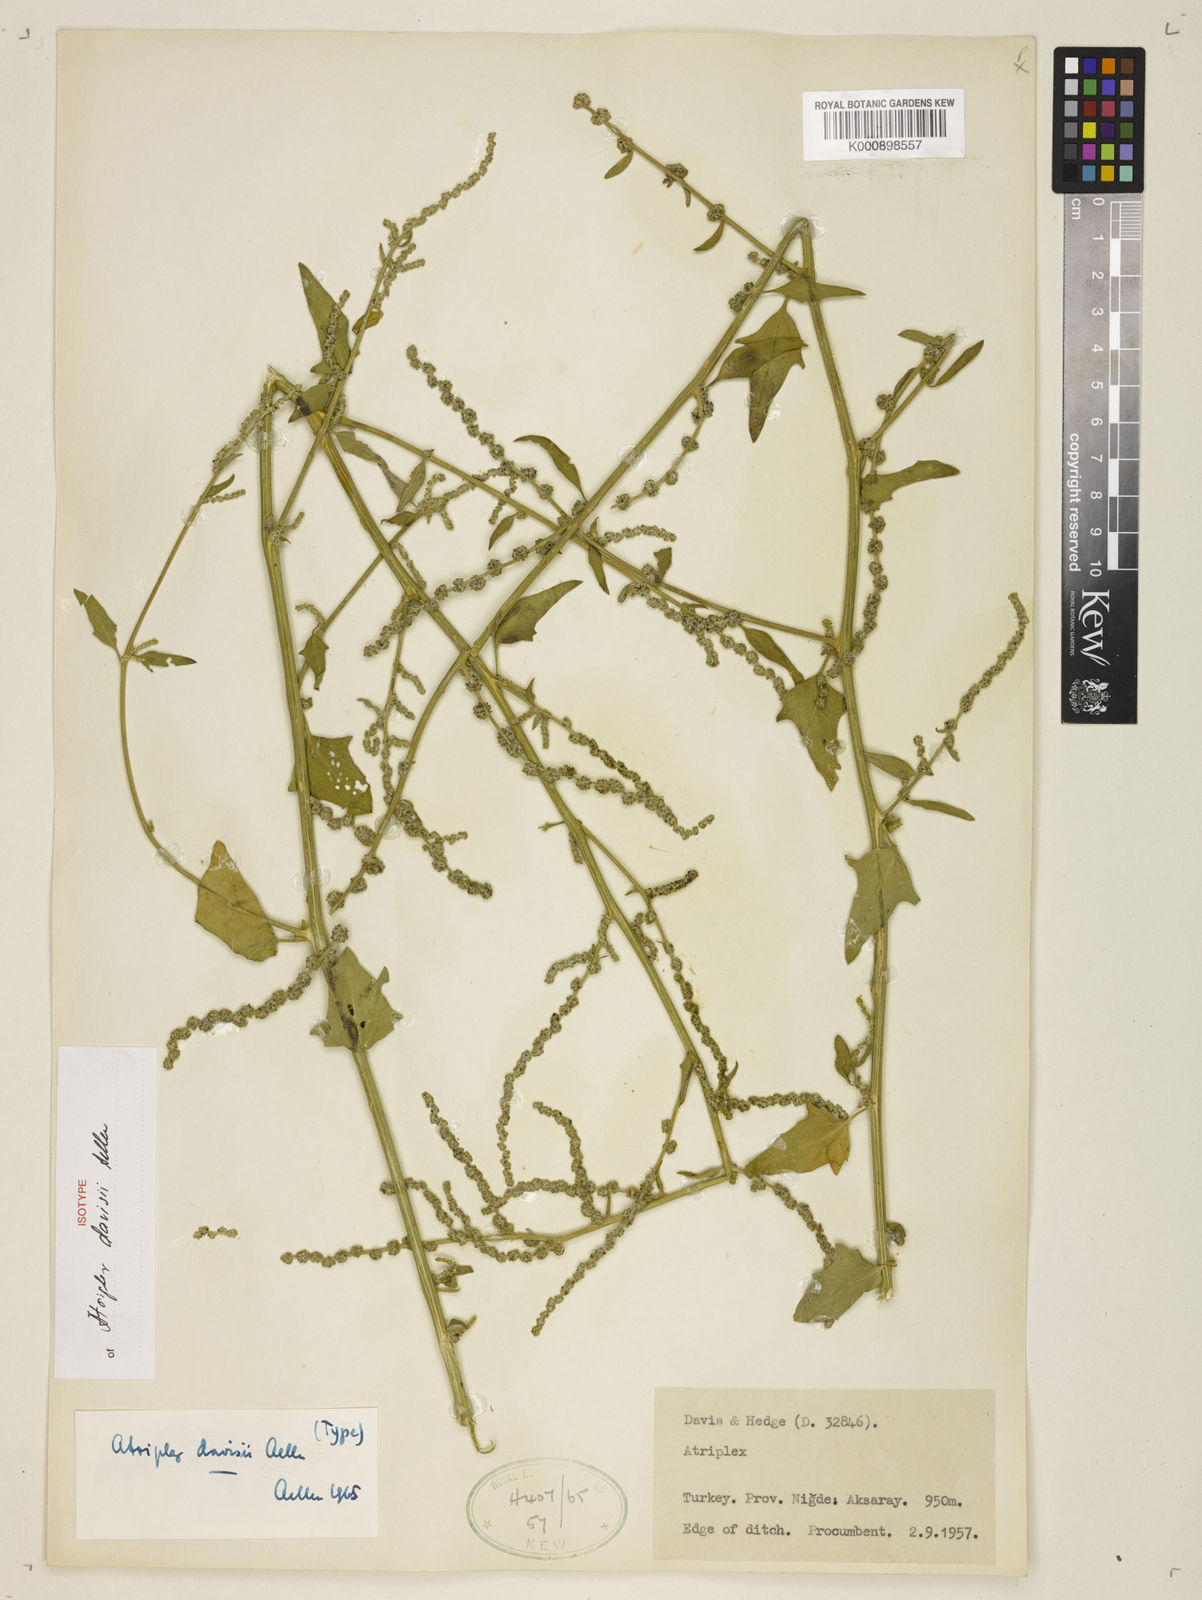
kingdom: Plantae
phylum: Tracheophyta
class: Magnoliopsida
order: Caryophyllales
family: Amaranthaceae
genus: Atriplex
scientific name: Atriplex davisii
